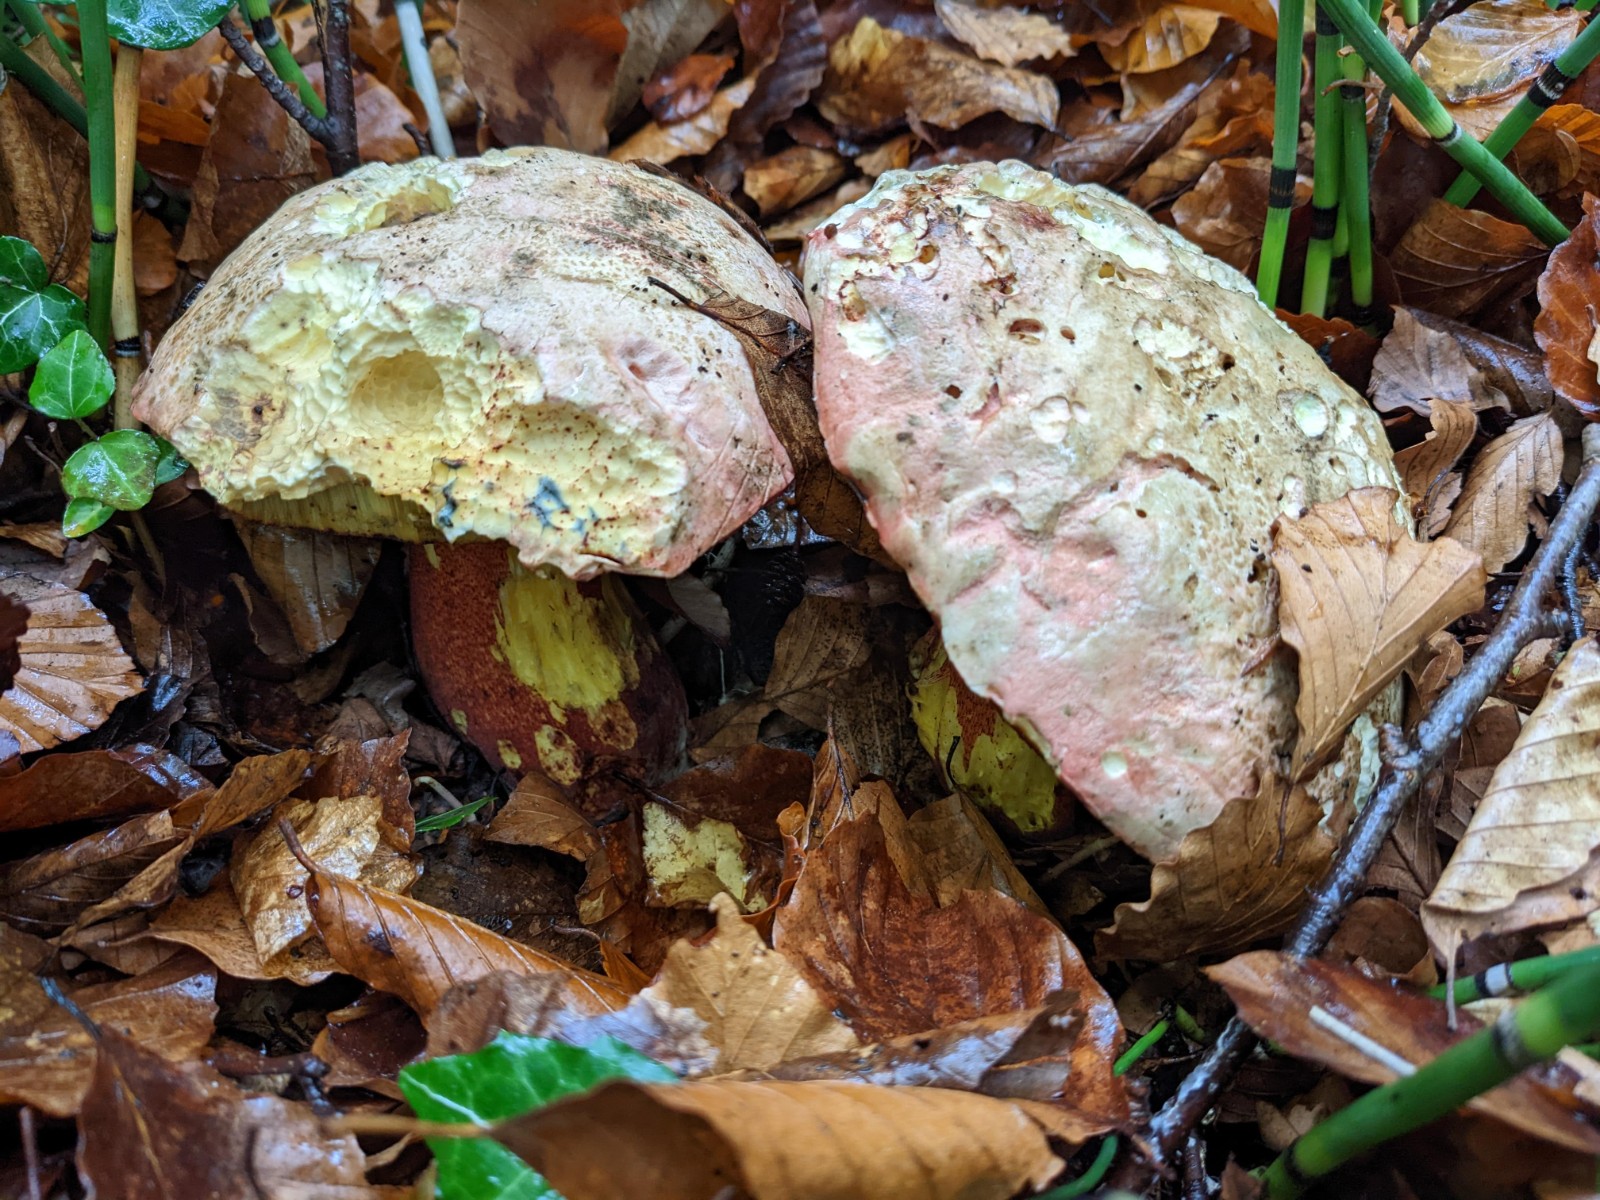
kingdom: Fungi
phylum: Basidiomycota
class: Agaricomycetes
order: Boletales
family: Boletaceae
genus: Rubroboletus
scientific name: Rubroboletus rhodoxanthus
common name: rødgul rørhat
